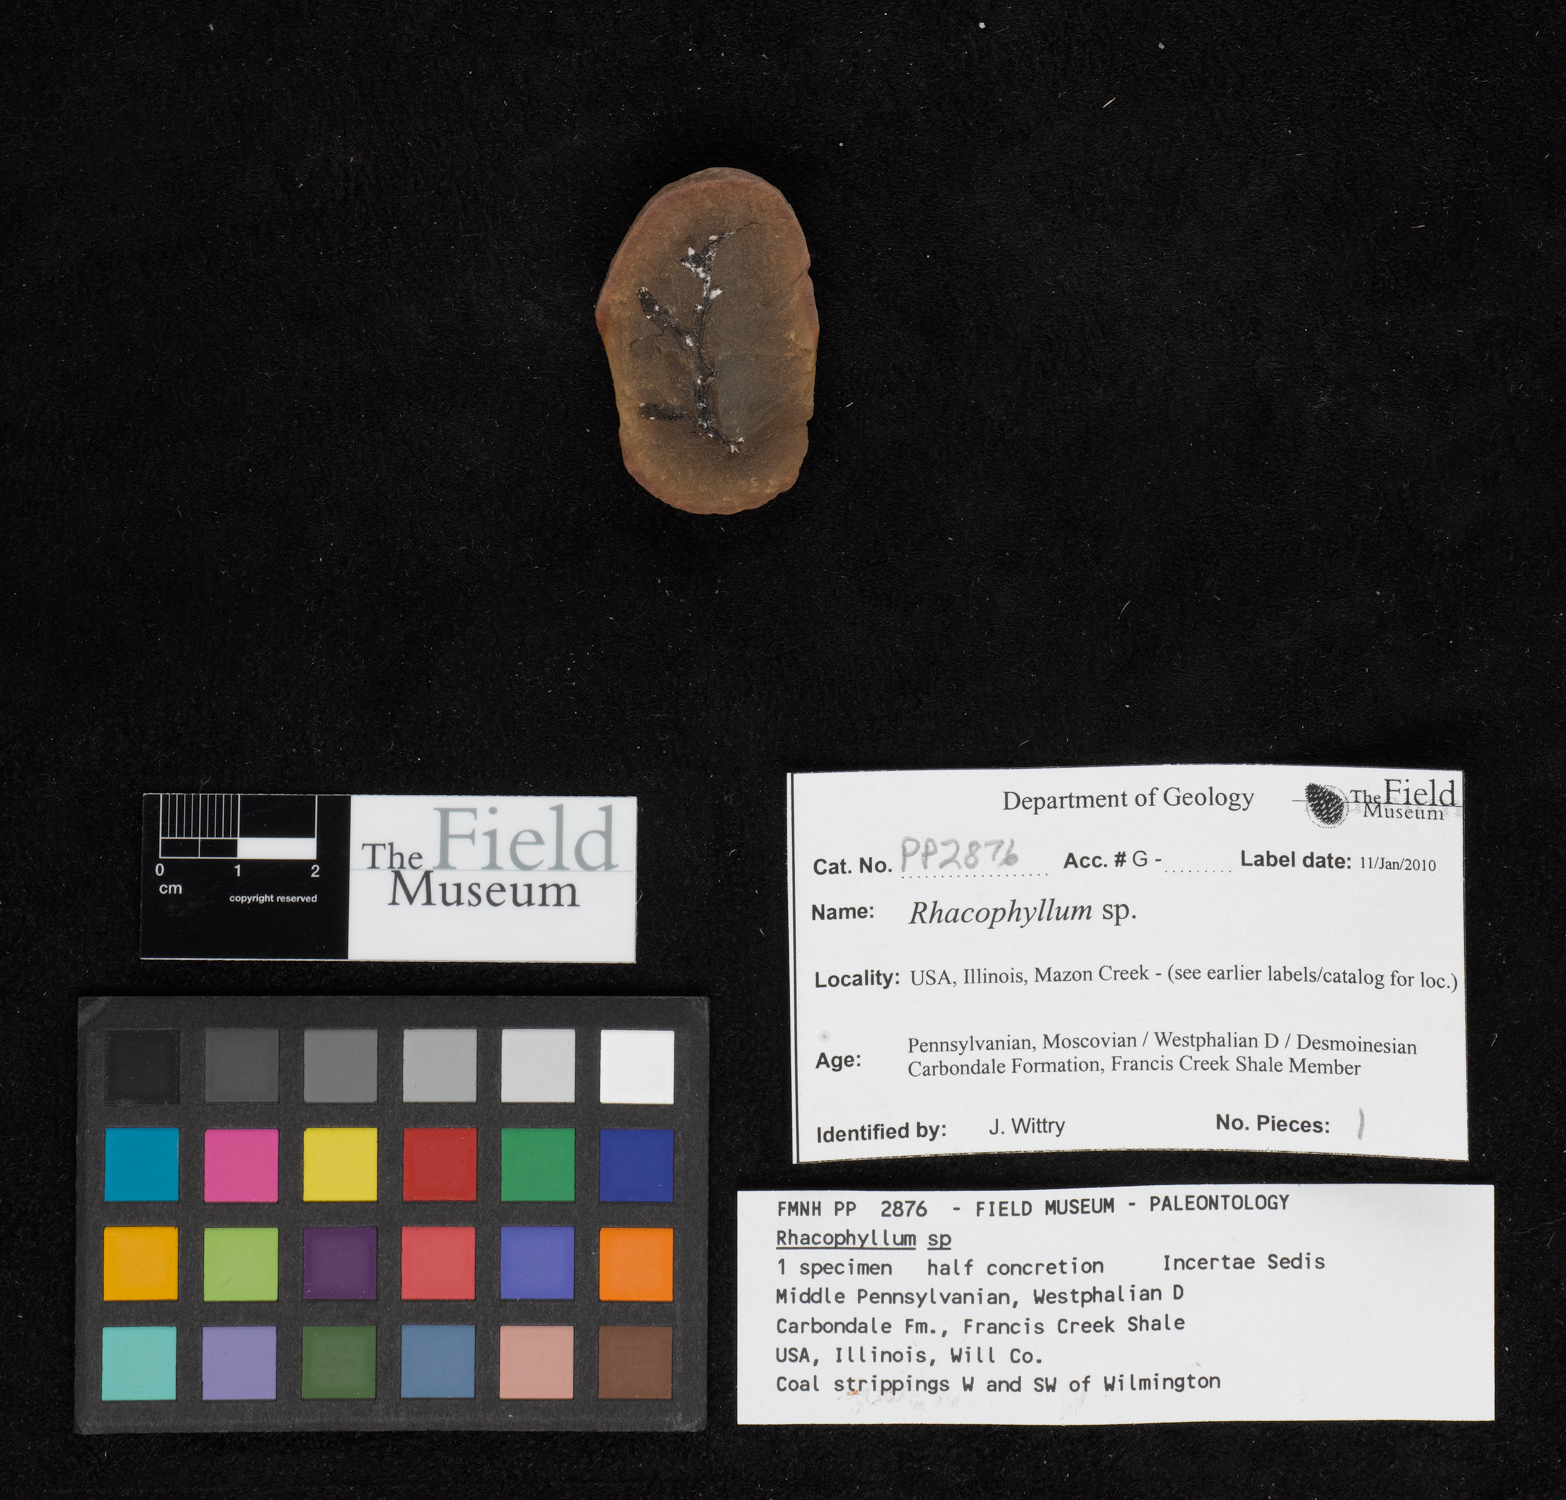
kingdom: Plantae
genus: Rhacophyllum
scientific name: Rhacophyllum
